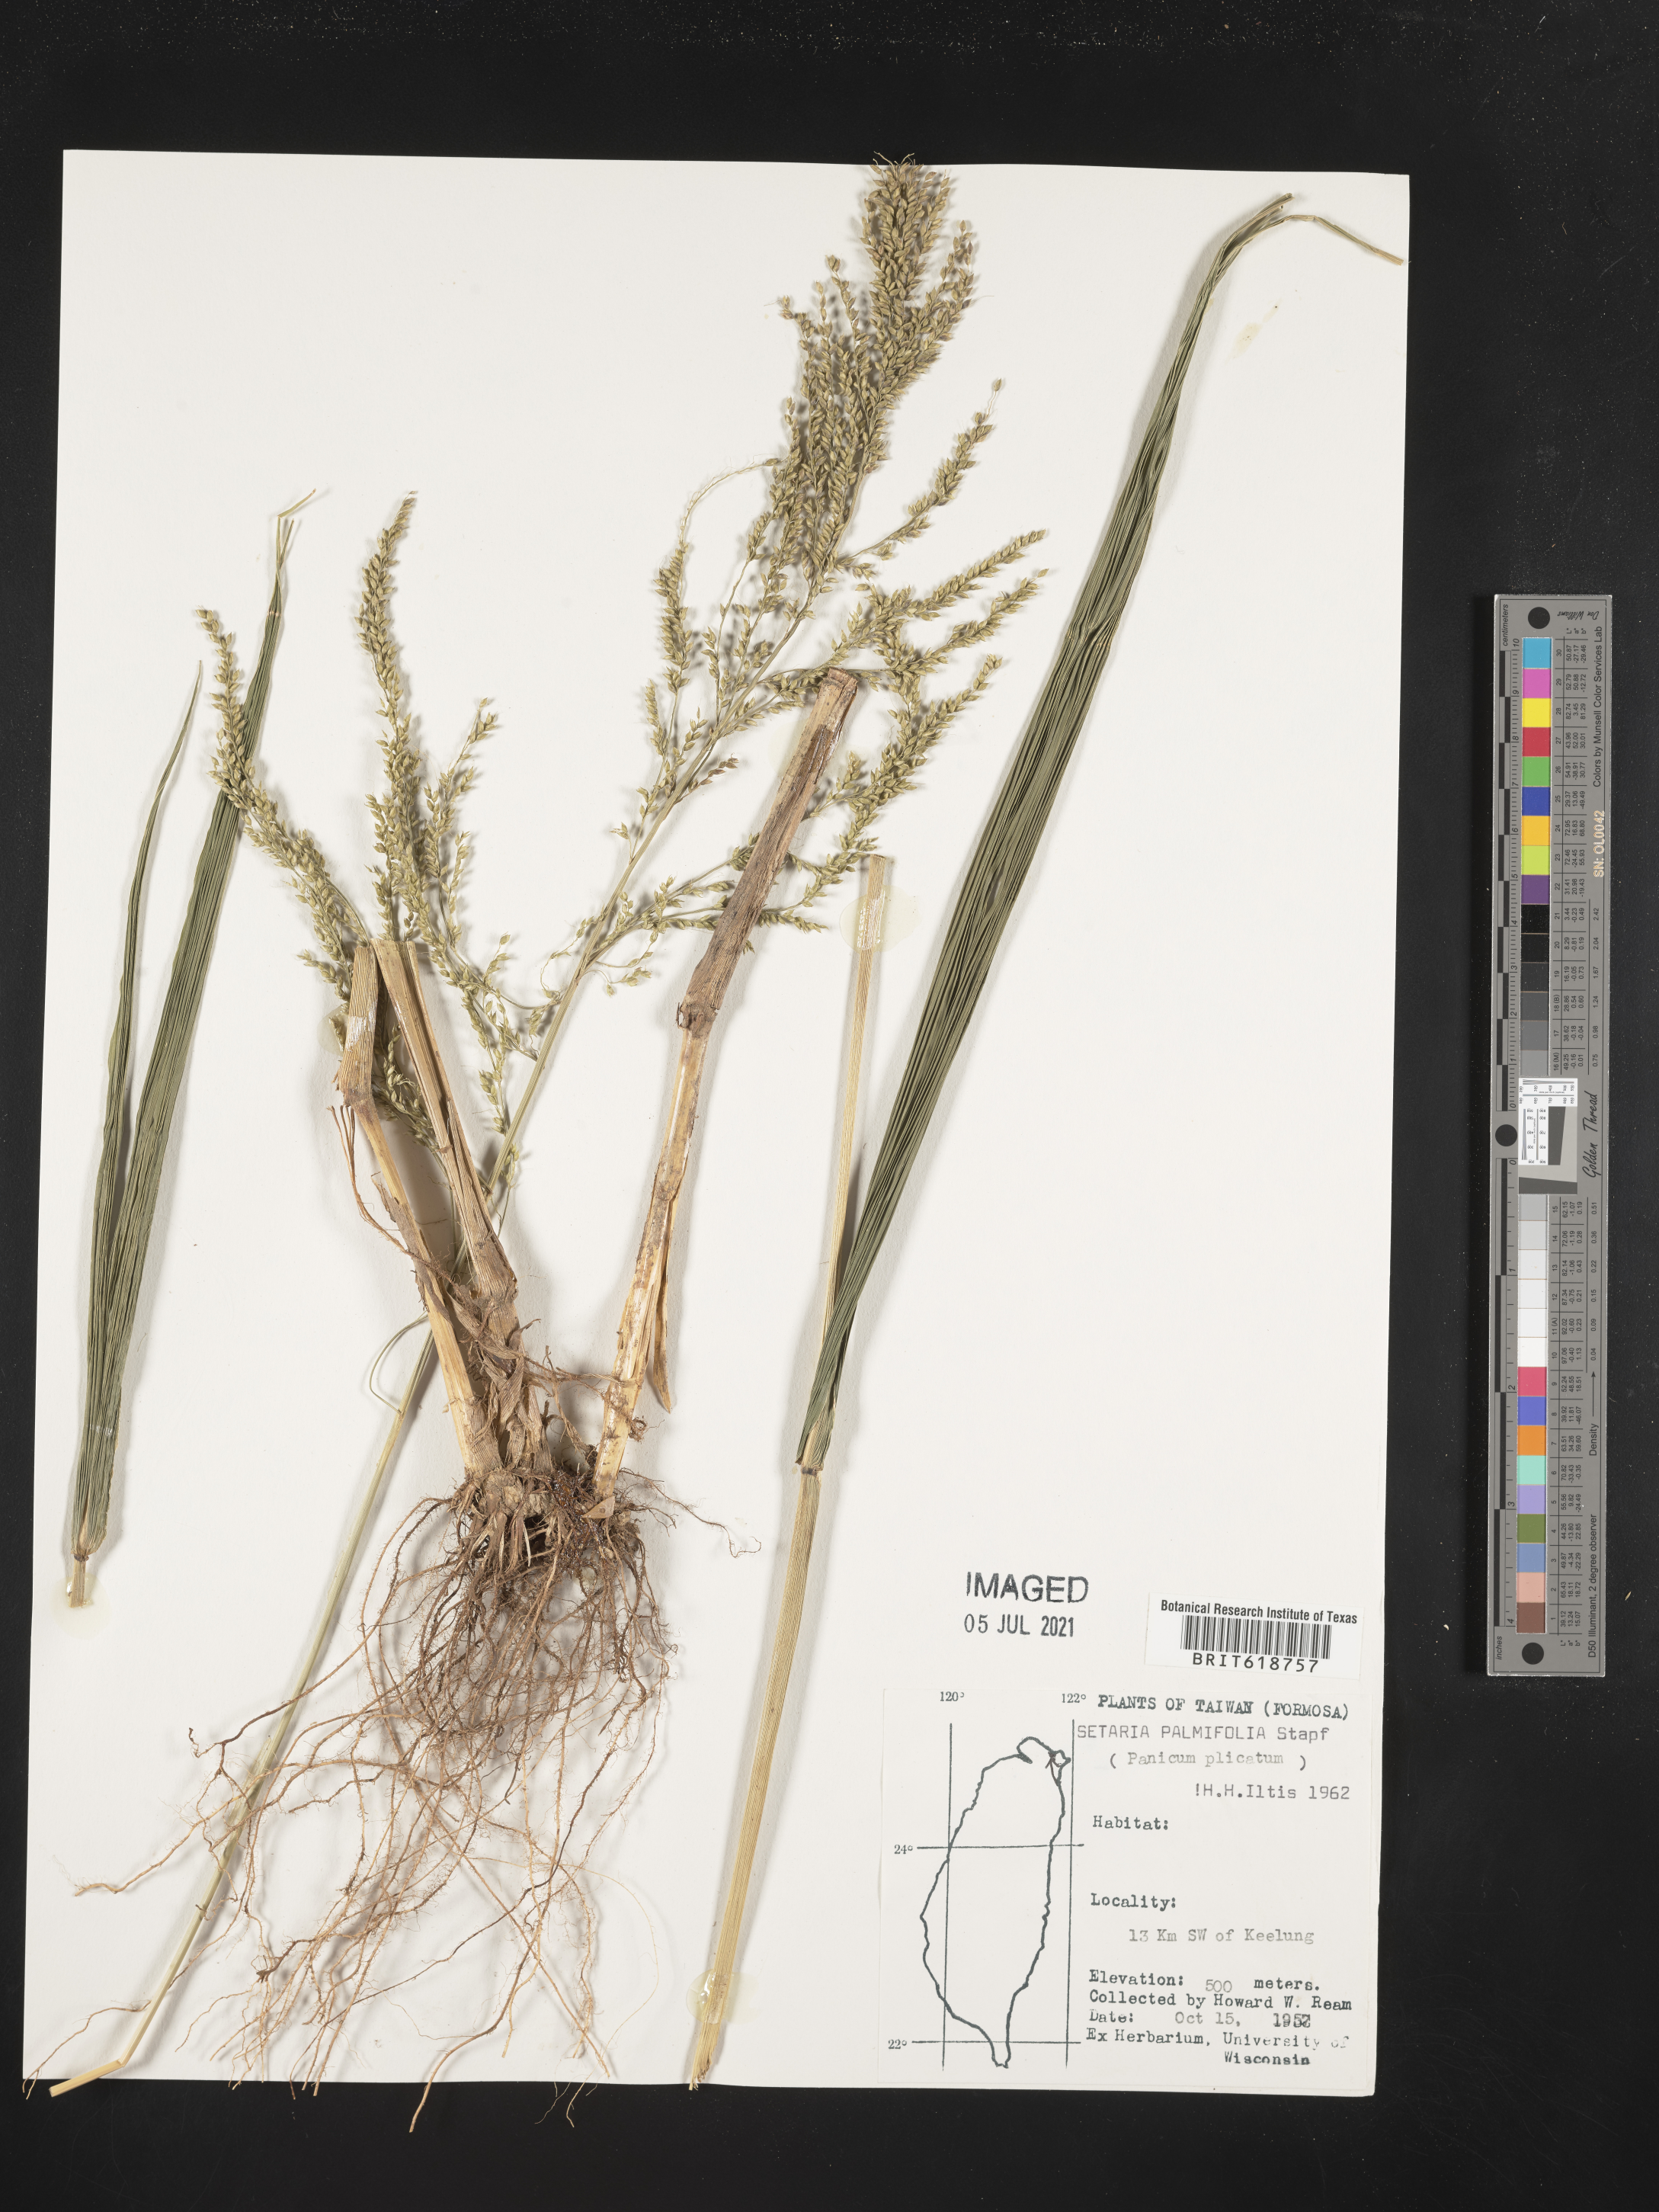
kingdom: Plantae
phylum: Tracheophyta
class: Liliopsida
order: Poales
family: Poaceae
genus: Setaria
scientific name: Setaria palmifolia
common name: Broadleaved bristlegrass
